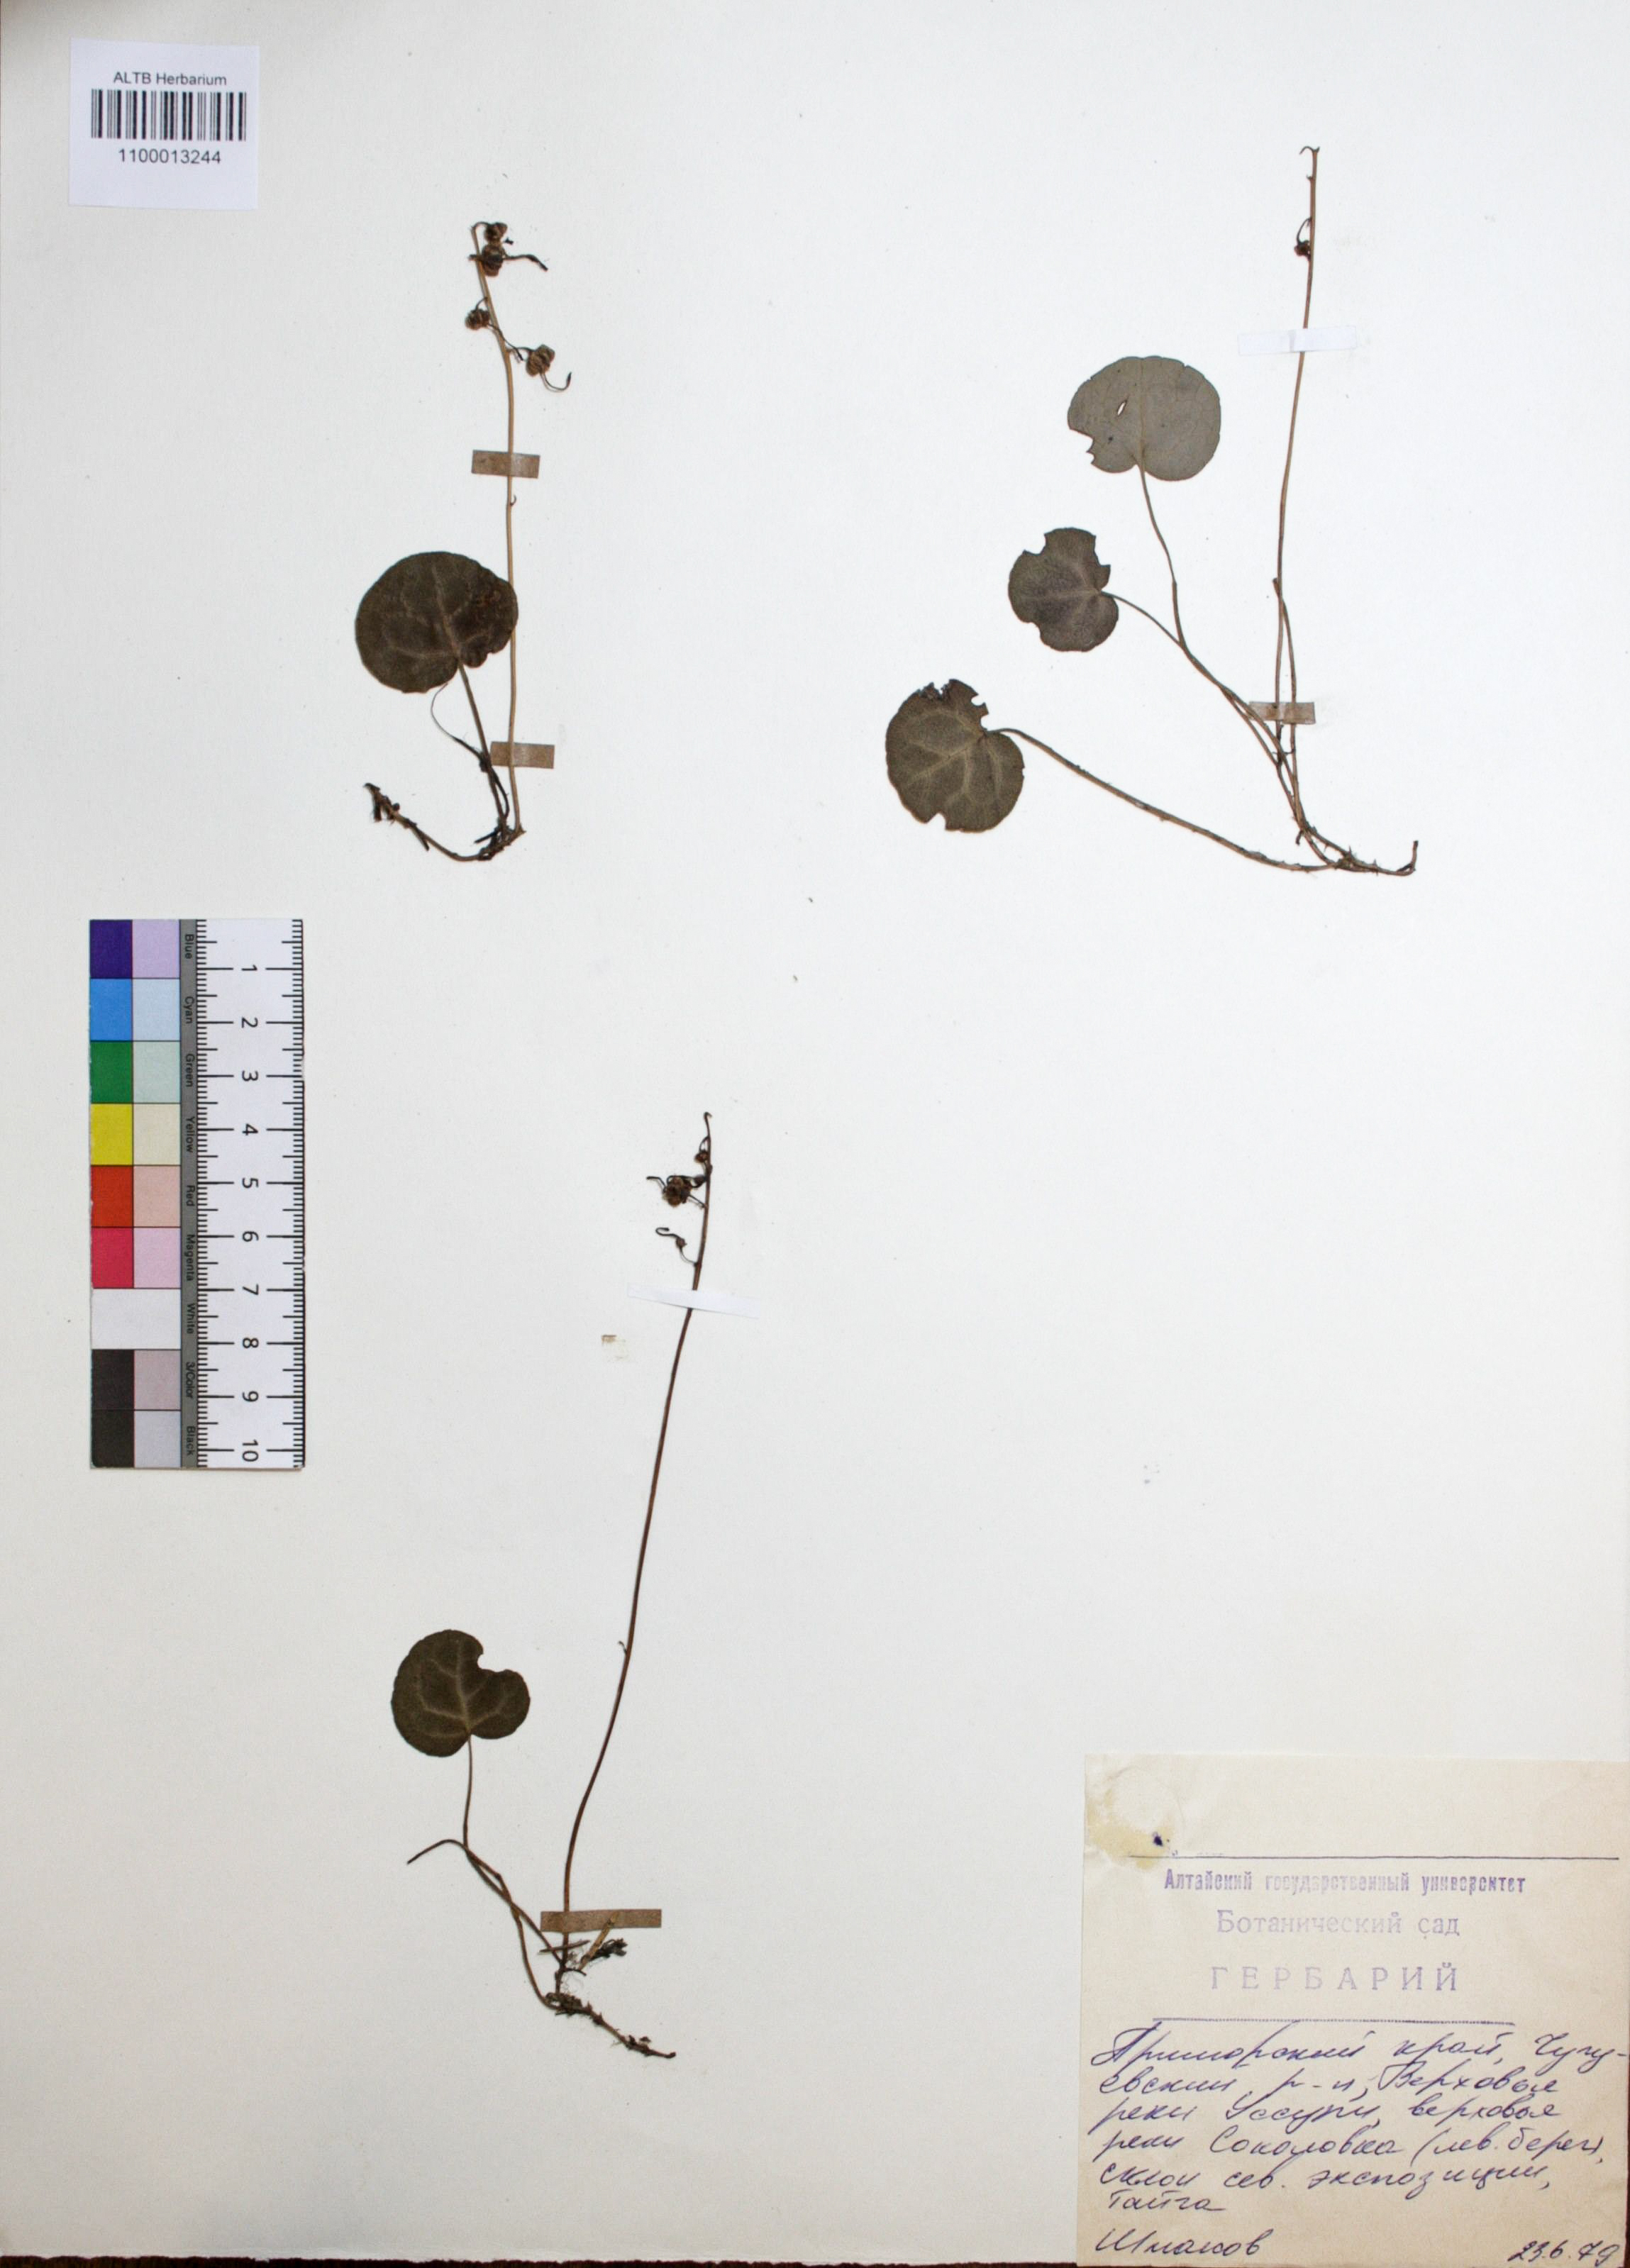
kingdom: Plantae
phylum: Tracheophyta
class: Magnoliopsida
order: Ericales
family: Ericaceae
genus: Pyrola
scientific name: Pyrola rotundifolia
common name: Round-leaved wintergreen
